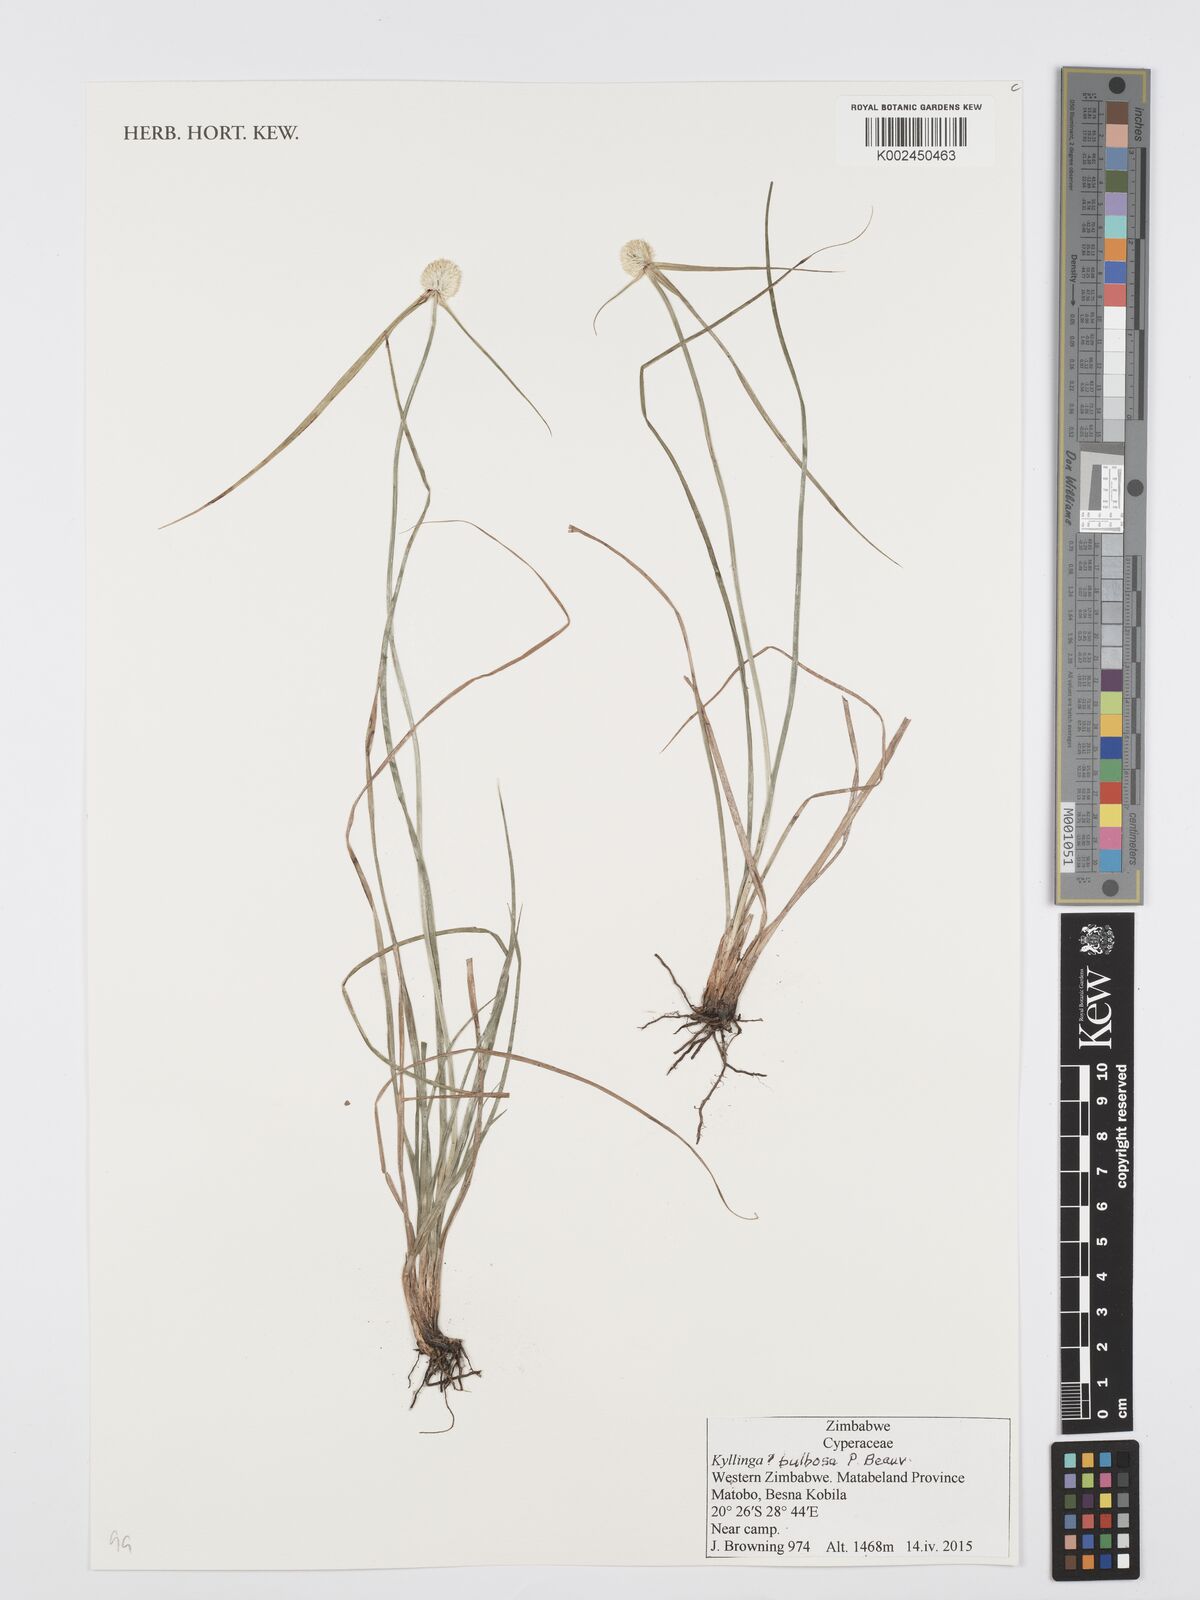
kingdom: Plantae
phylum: Tracheophyta
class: Liliopsida
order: Poales
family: Cyperaceae
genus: Cyperus
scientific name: Cyperus tenuifolius
